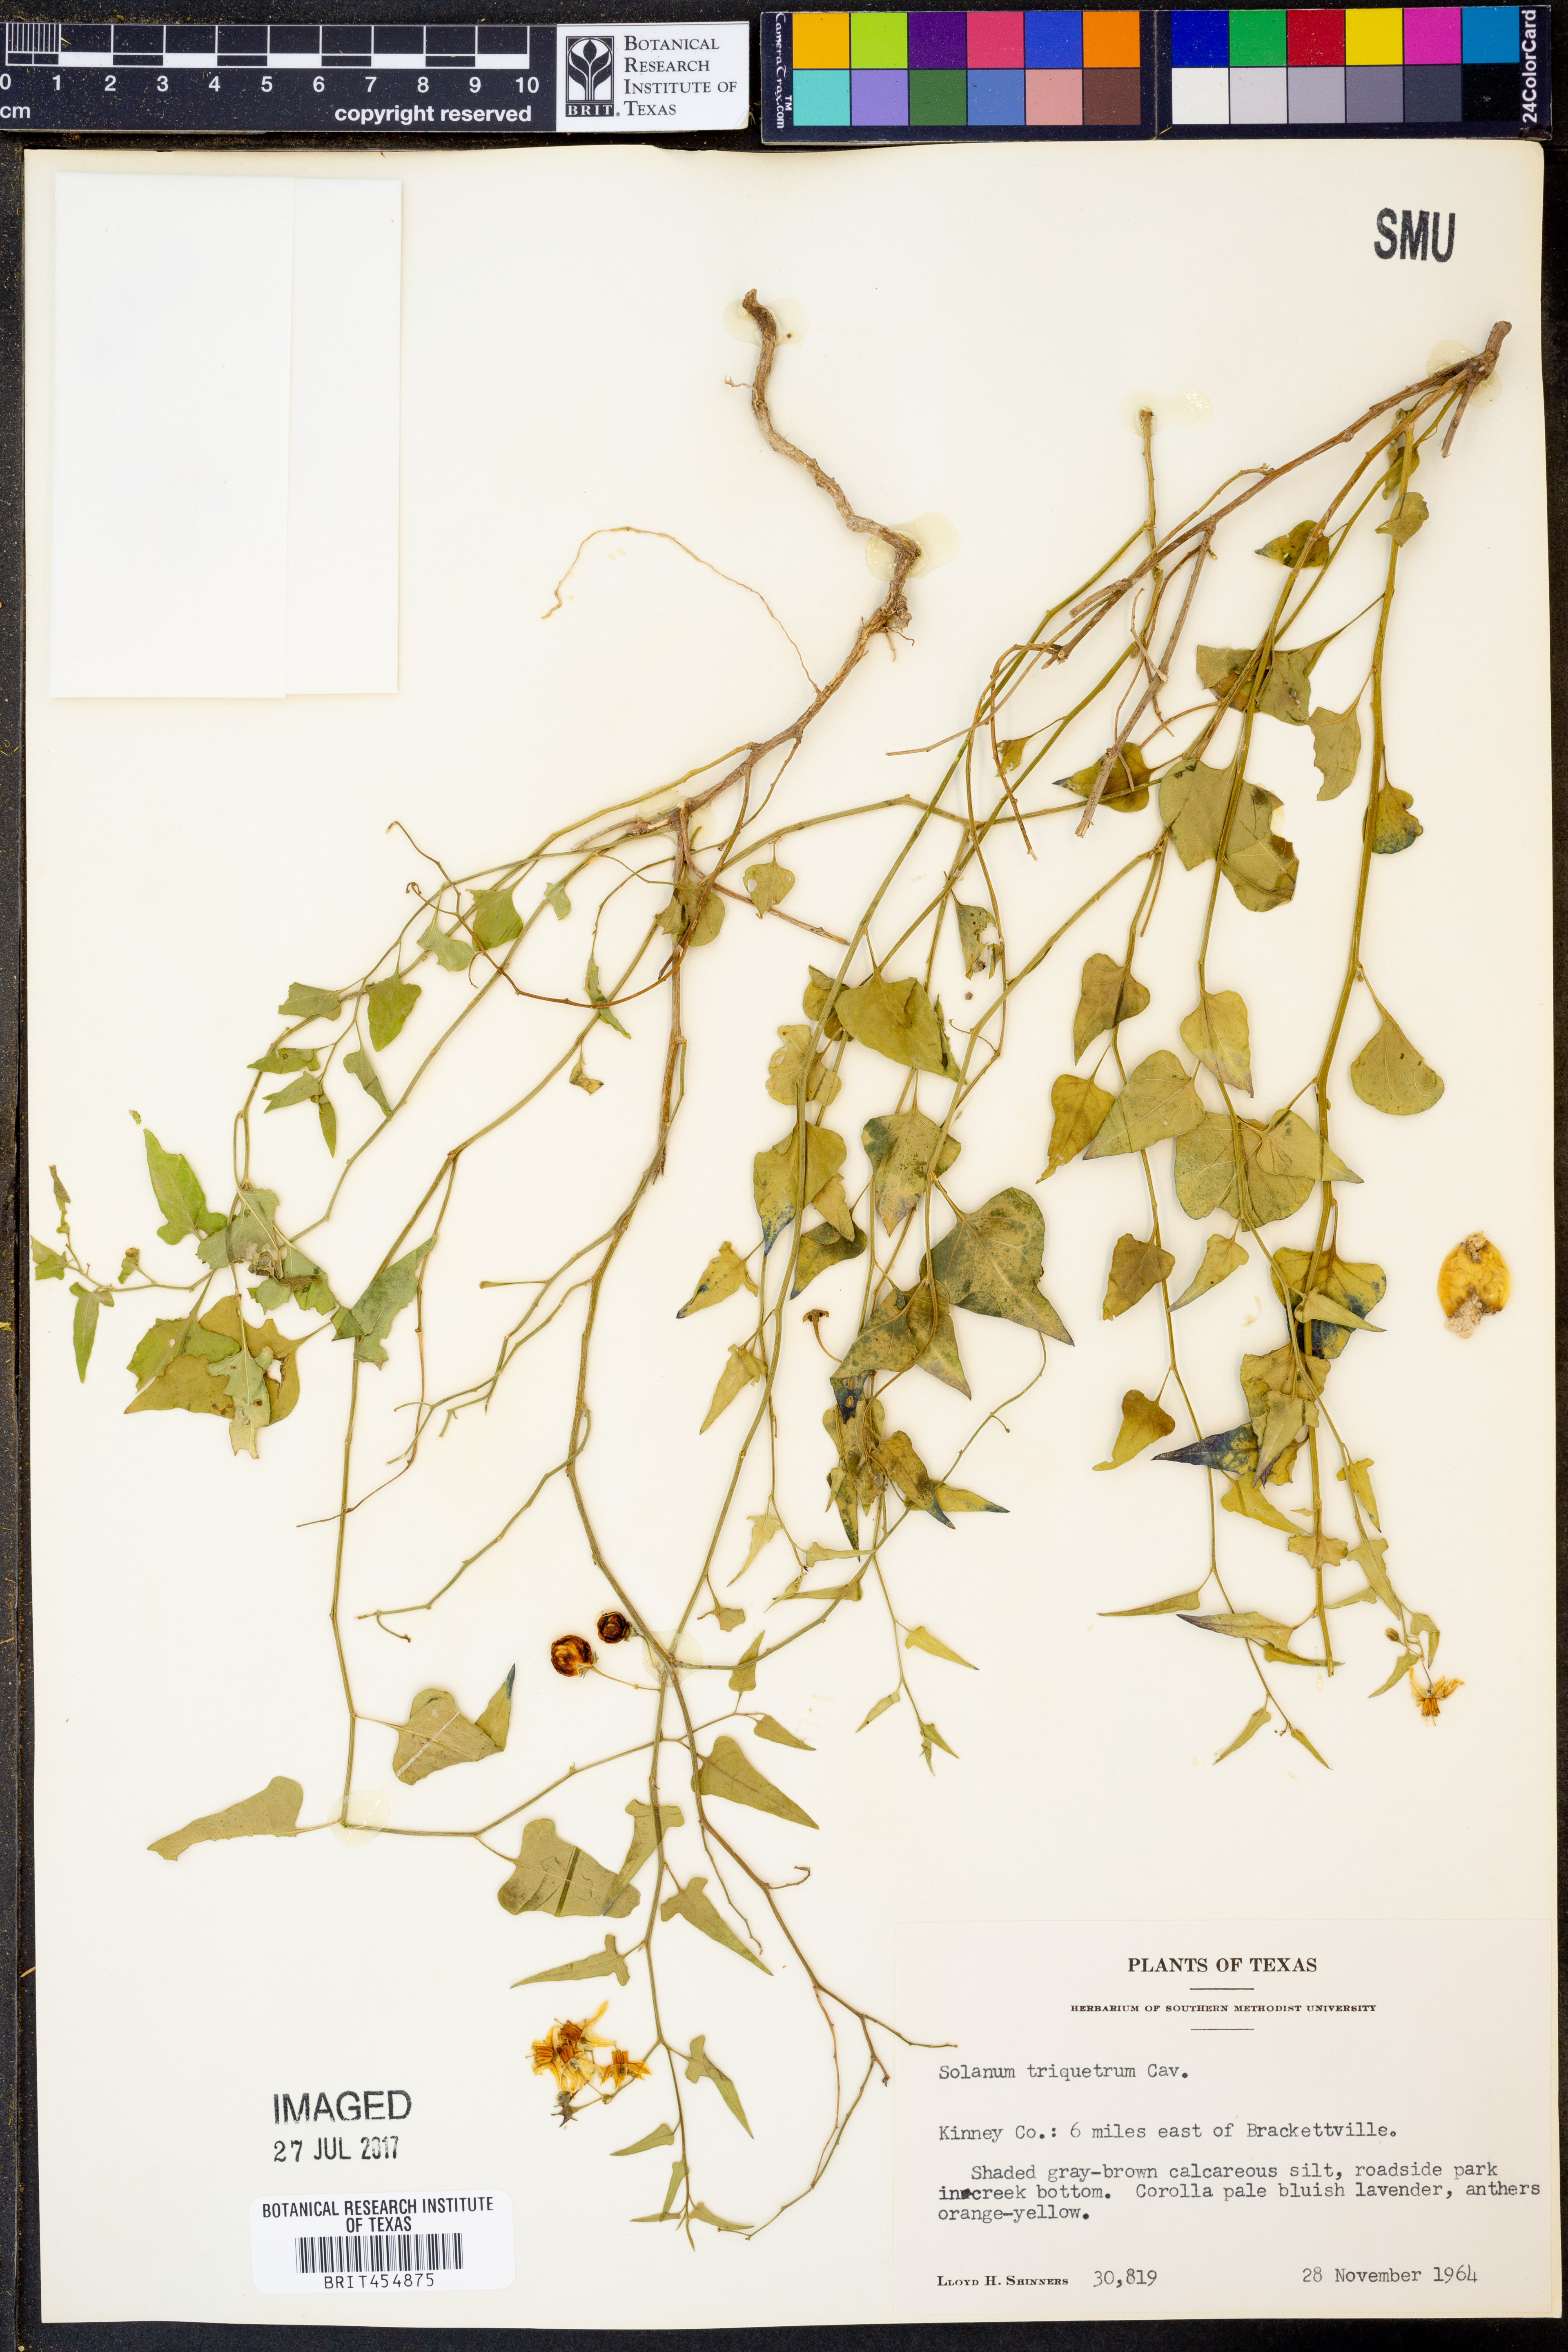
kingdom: Plantae
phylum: Tracheophyta
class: Magnoliopsida
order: Solanales
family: Solanaceae
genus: Solanum
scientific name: Solanum triquetrum
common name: Texas nightshade
